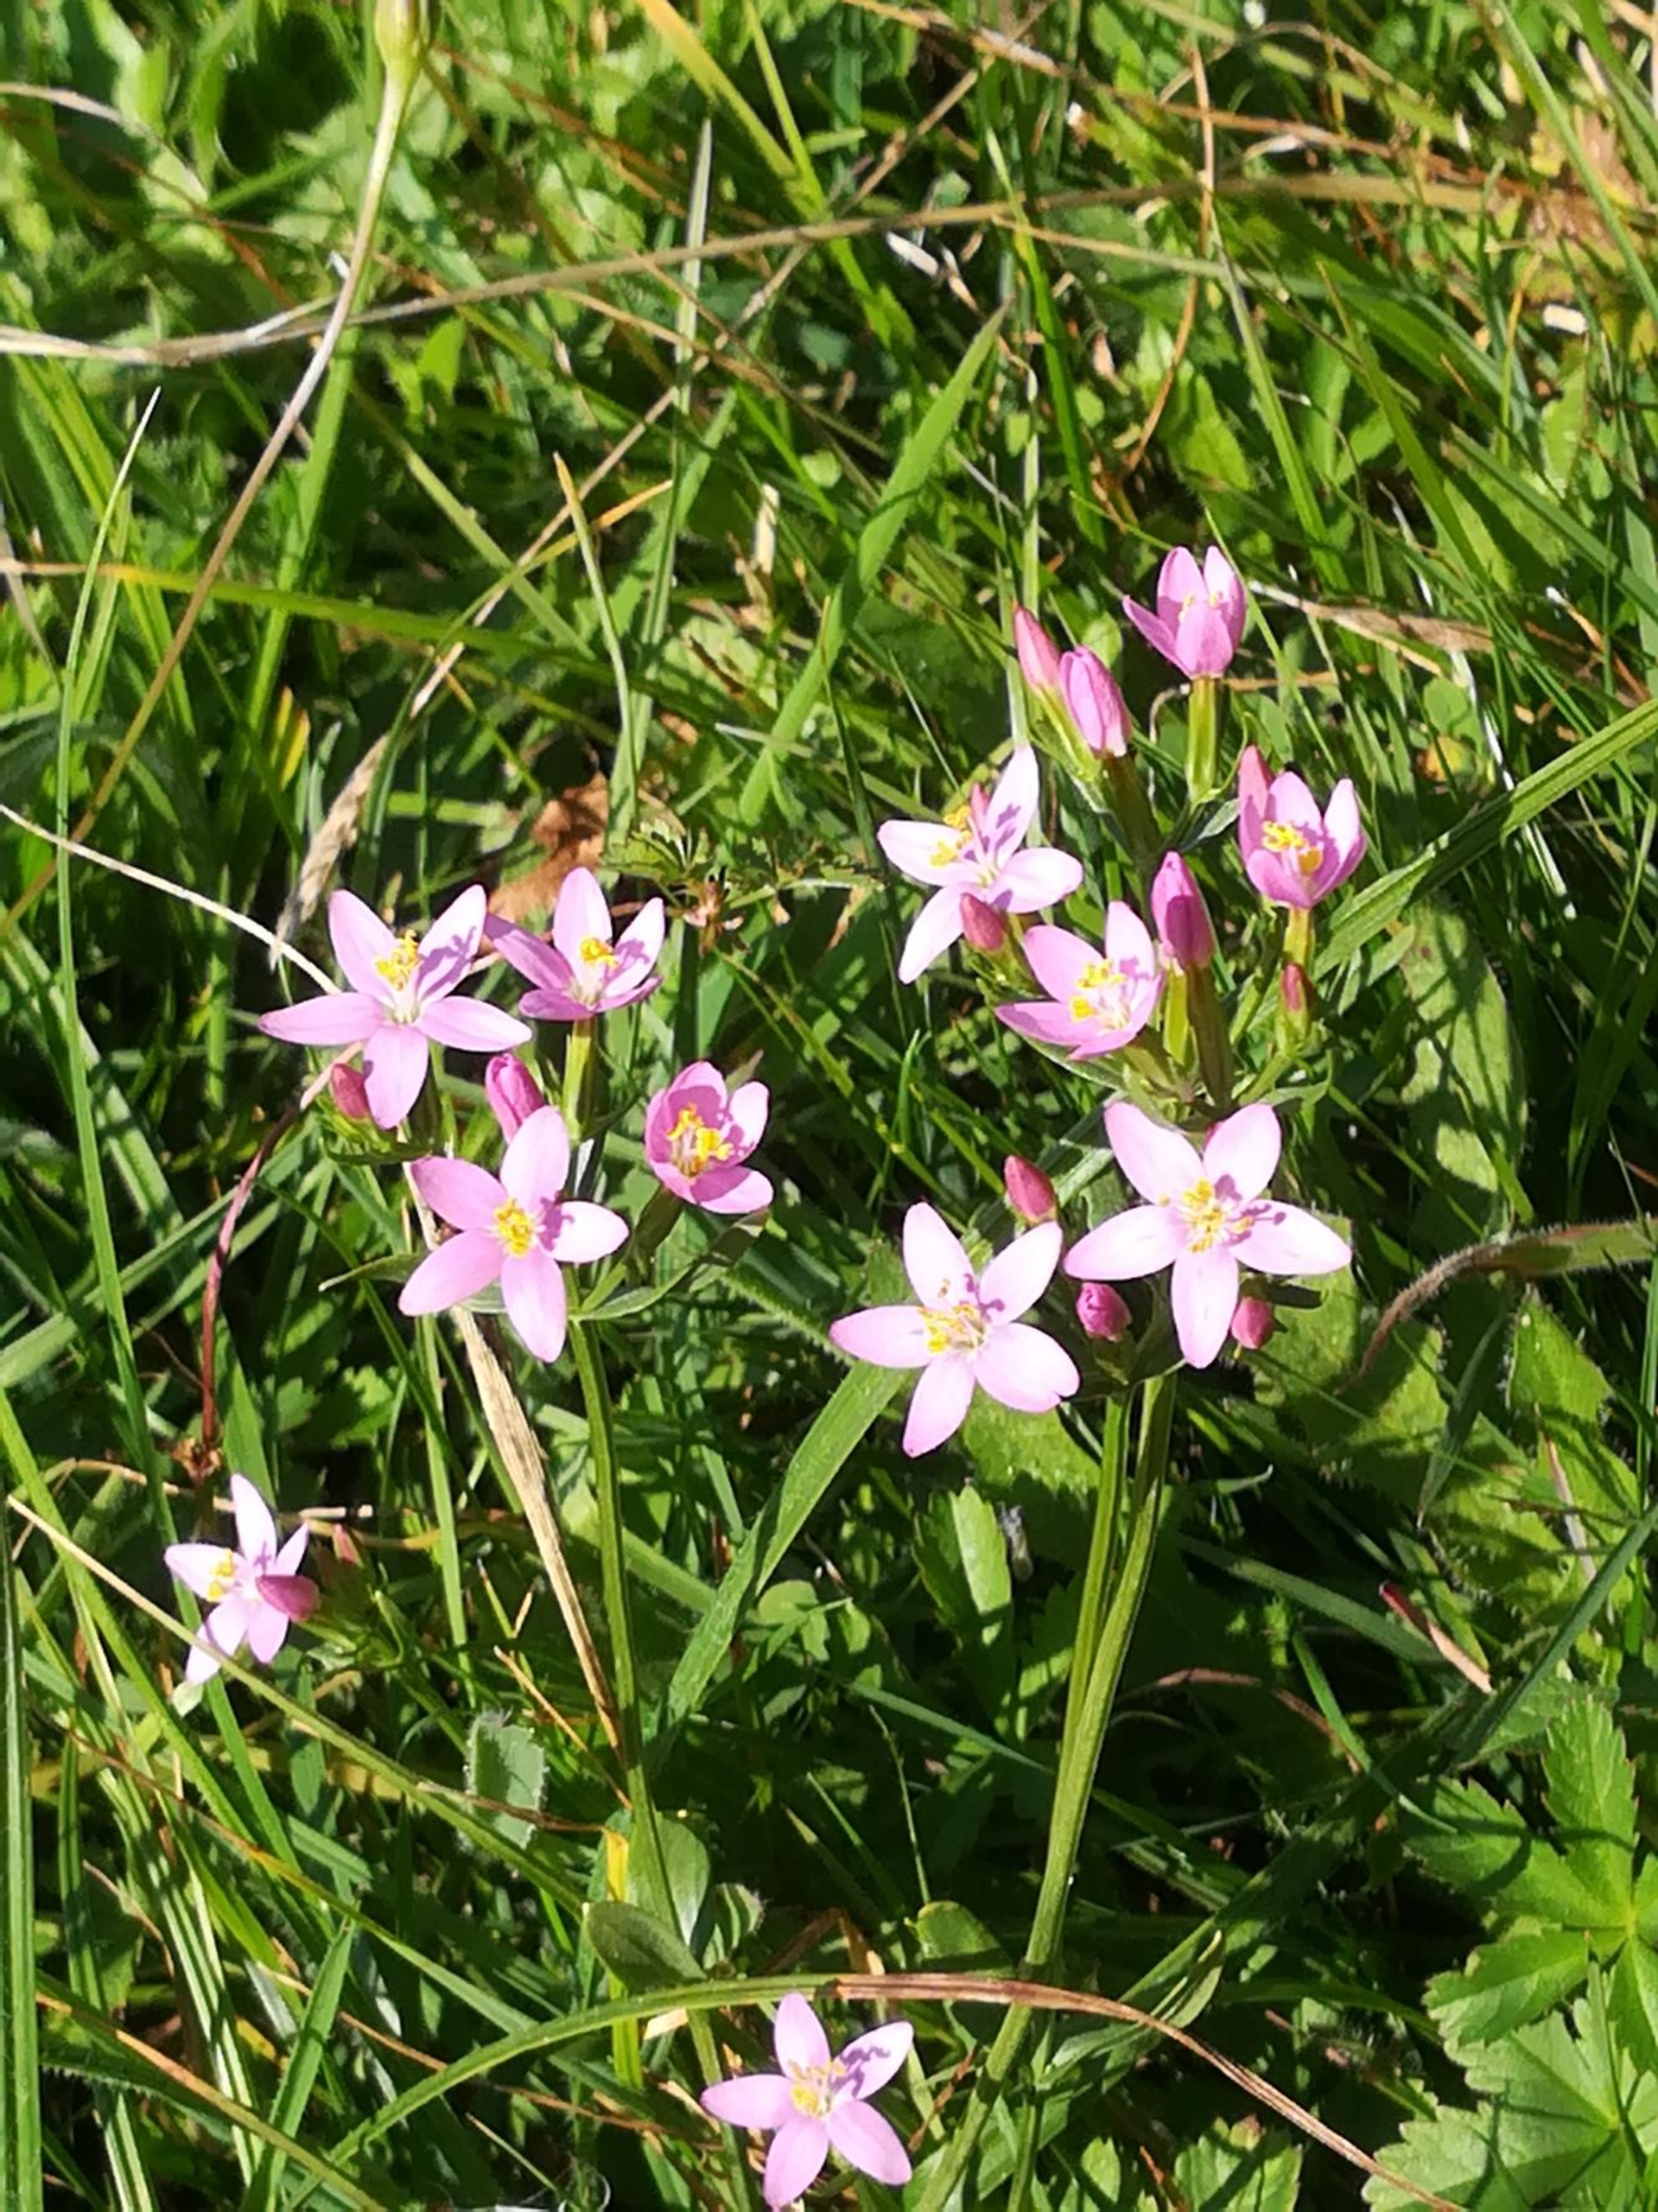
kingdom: Plantae
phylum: Tracheophyta
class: Magnoliopsida
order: Gentianales
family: Gentianaceae
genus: Centaurium
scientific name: Centaurium erythraea
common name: Mark-tusindgylden
